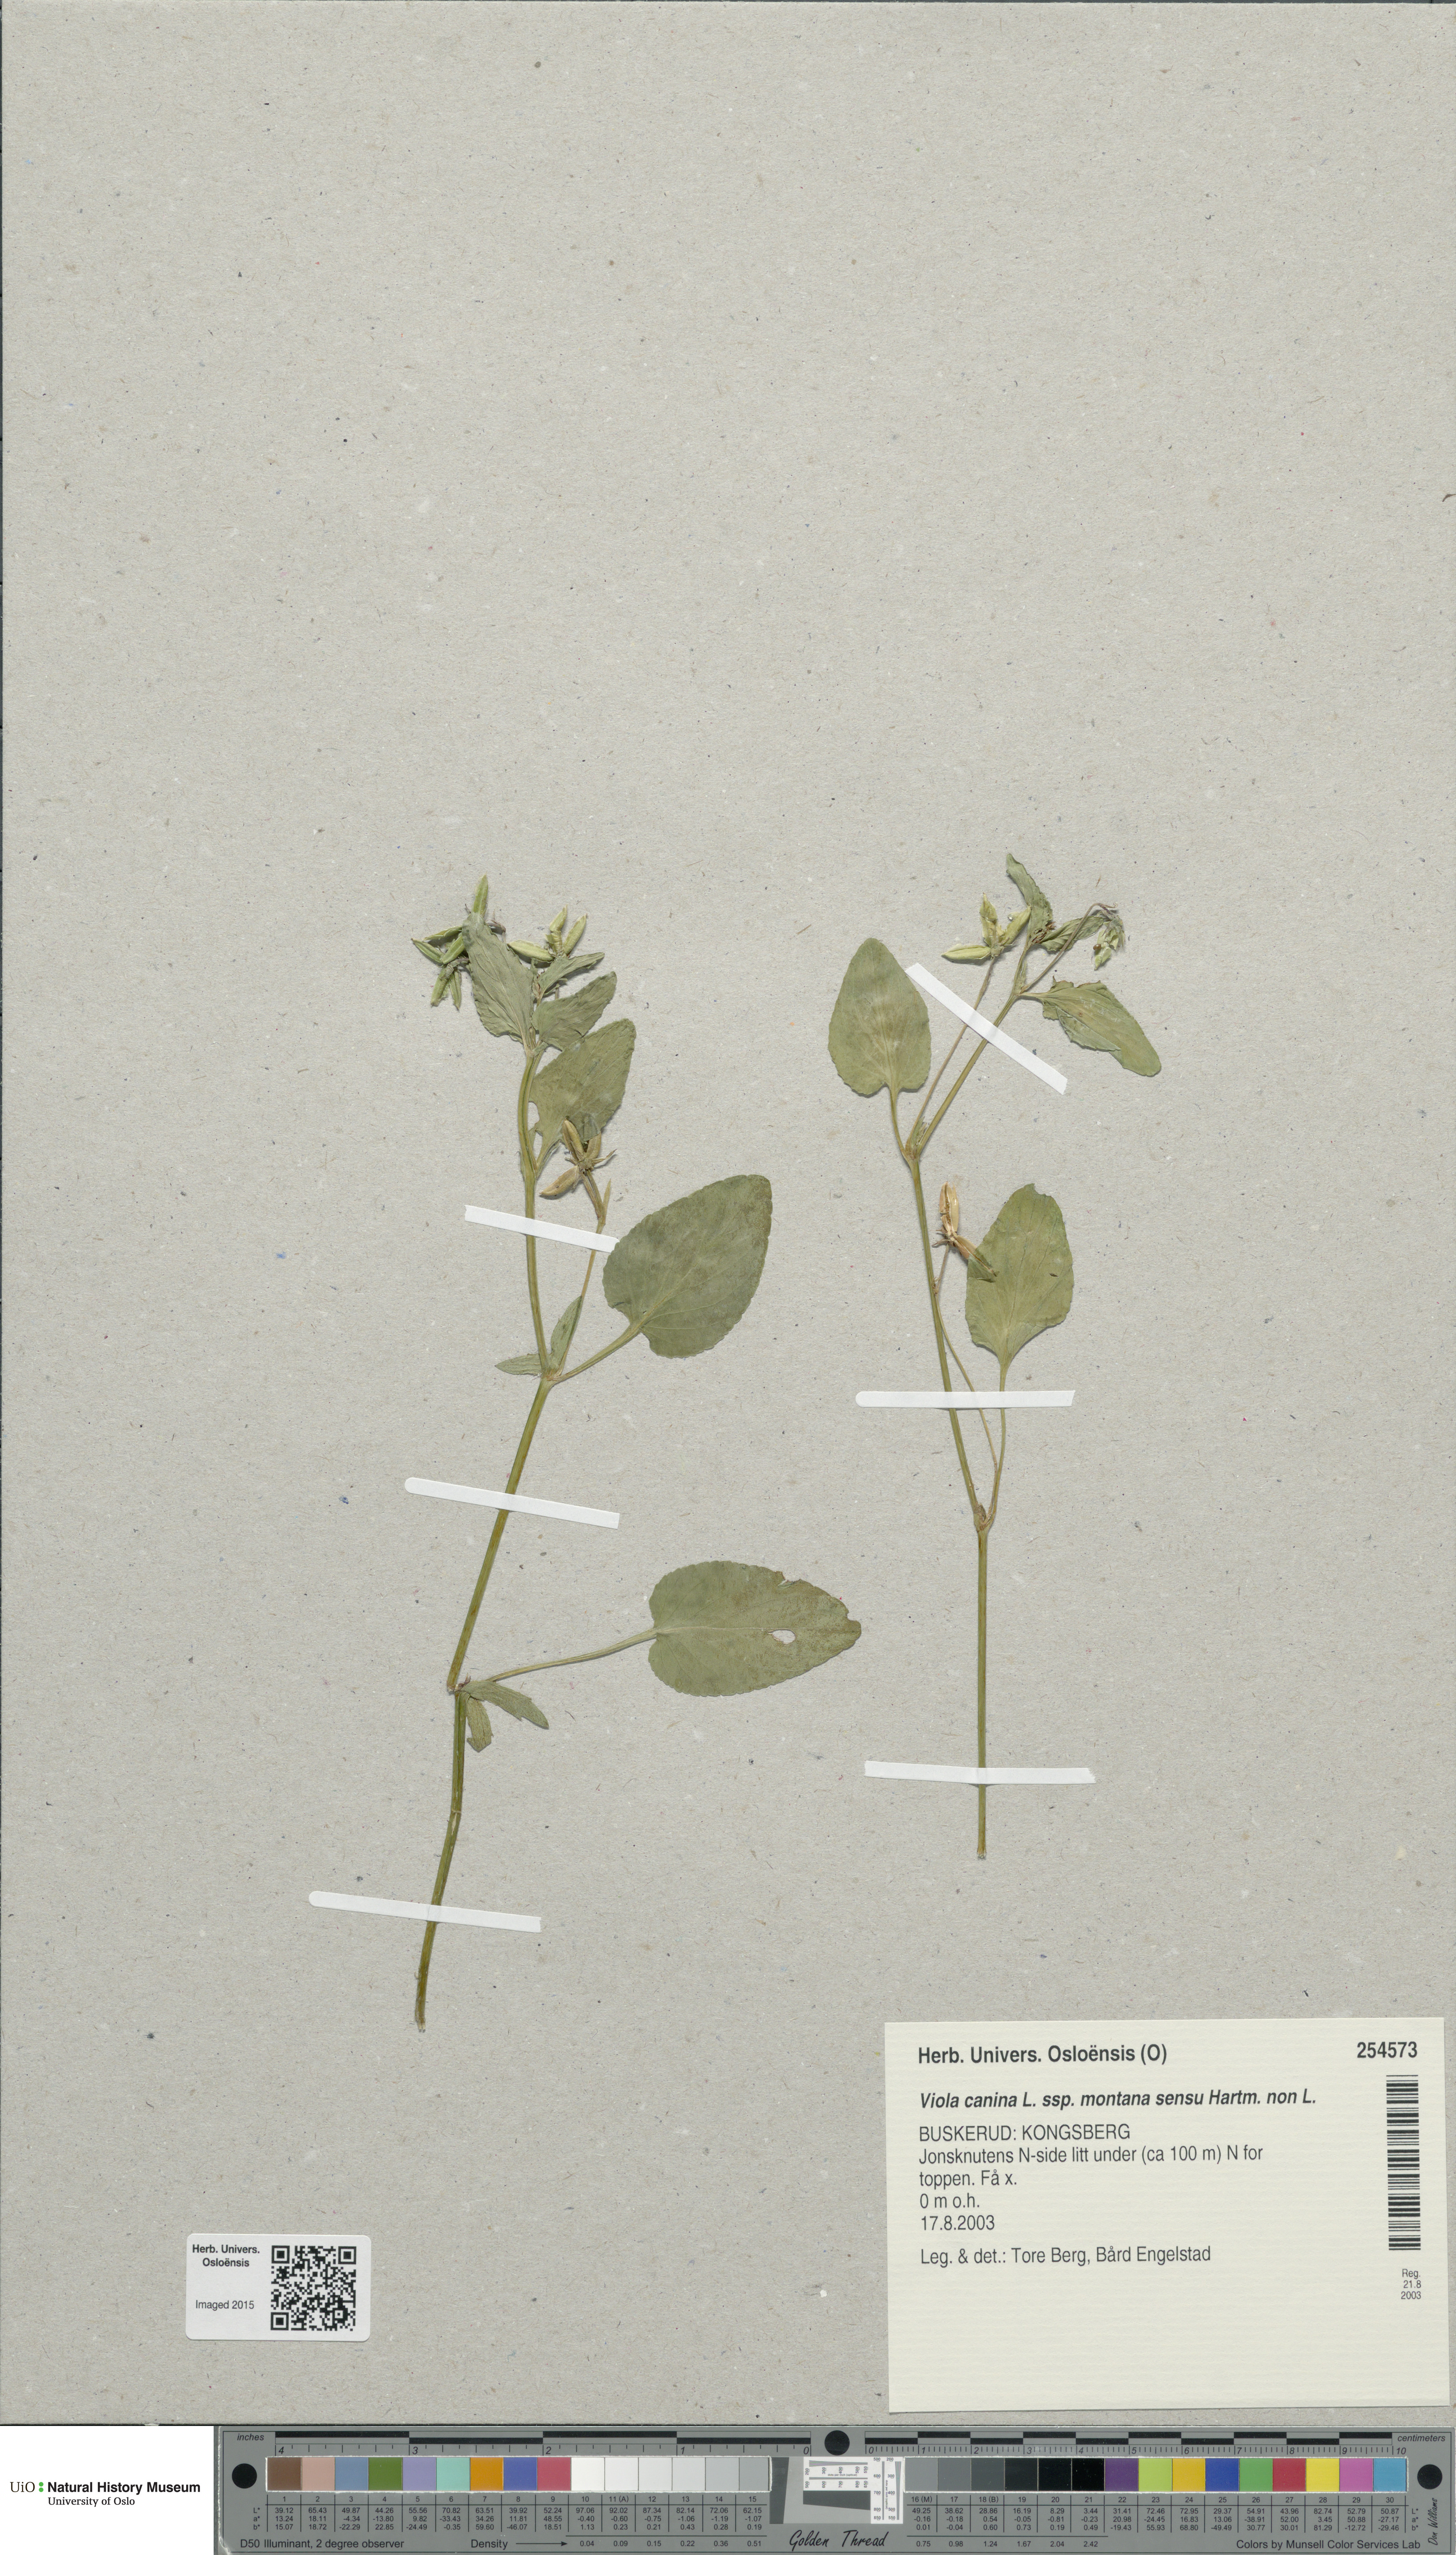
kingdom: Plantae
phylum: Tracheophyta
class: Magnoliopsida
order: Malpighiales
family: Violaceae
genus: Viola
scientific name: Viola ruppii
